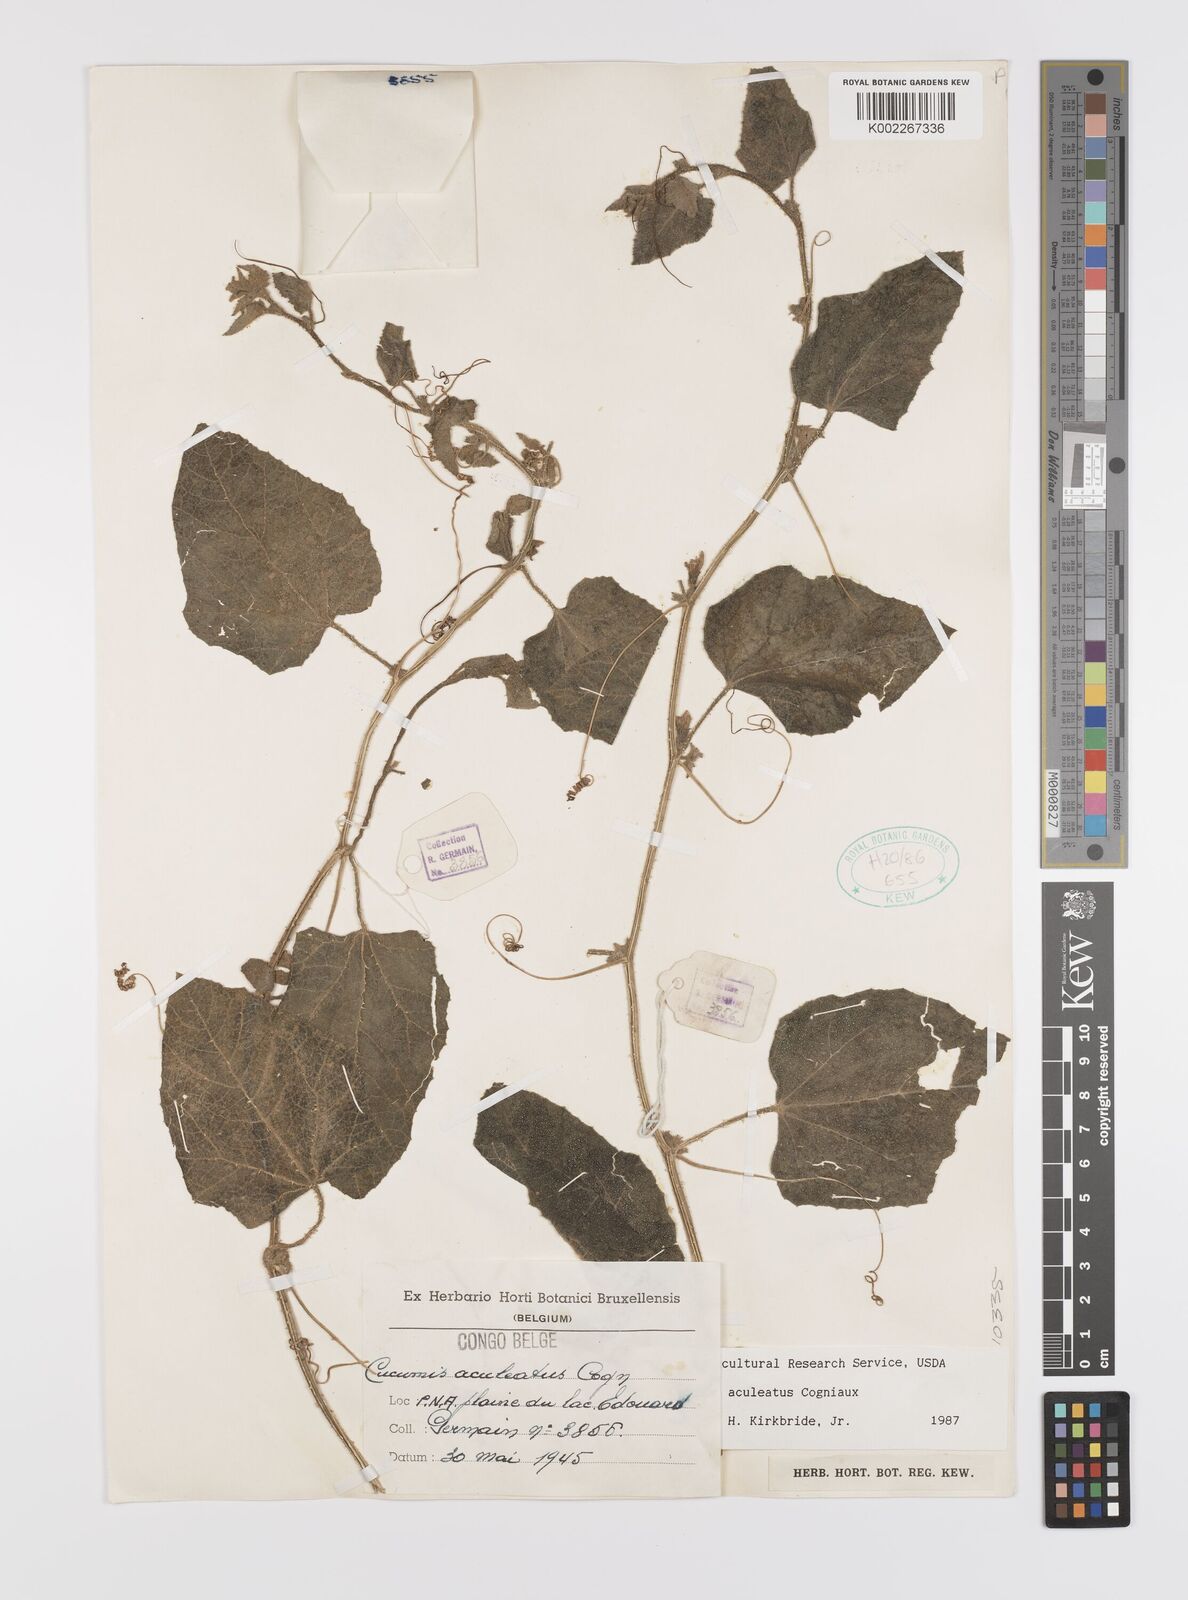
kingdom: Plantae
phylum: Tracheophyta
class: Magnoliopsida
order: Cucurbitales
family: Cucurbitaceae
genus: Cucumis
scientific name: Cucumis aculeatus
